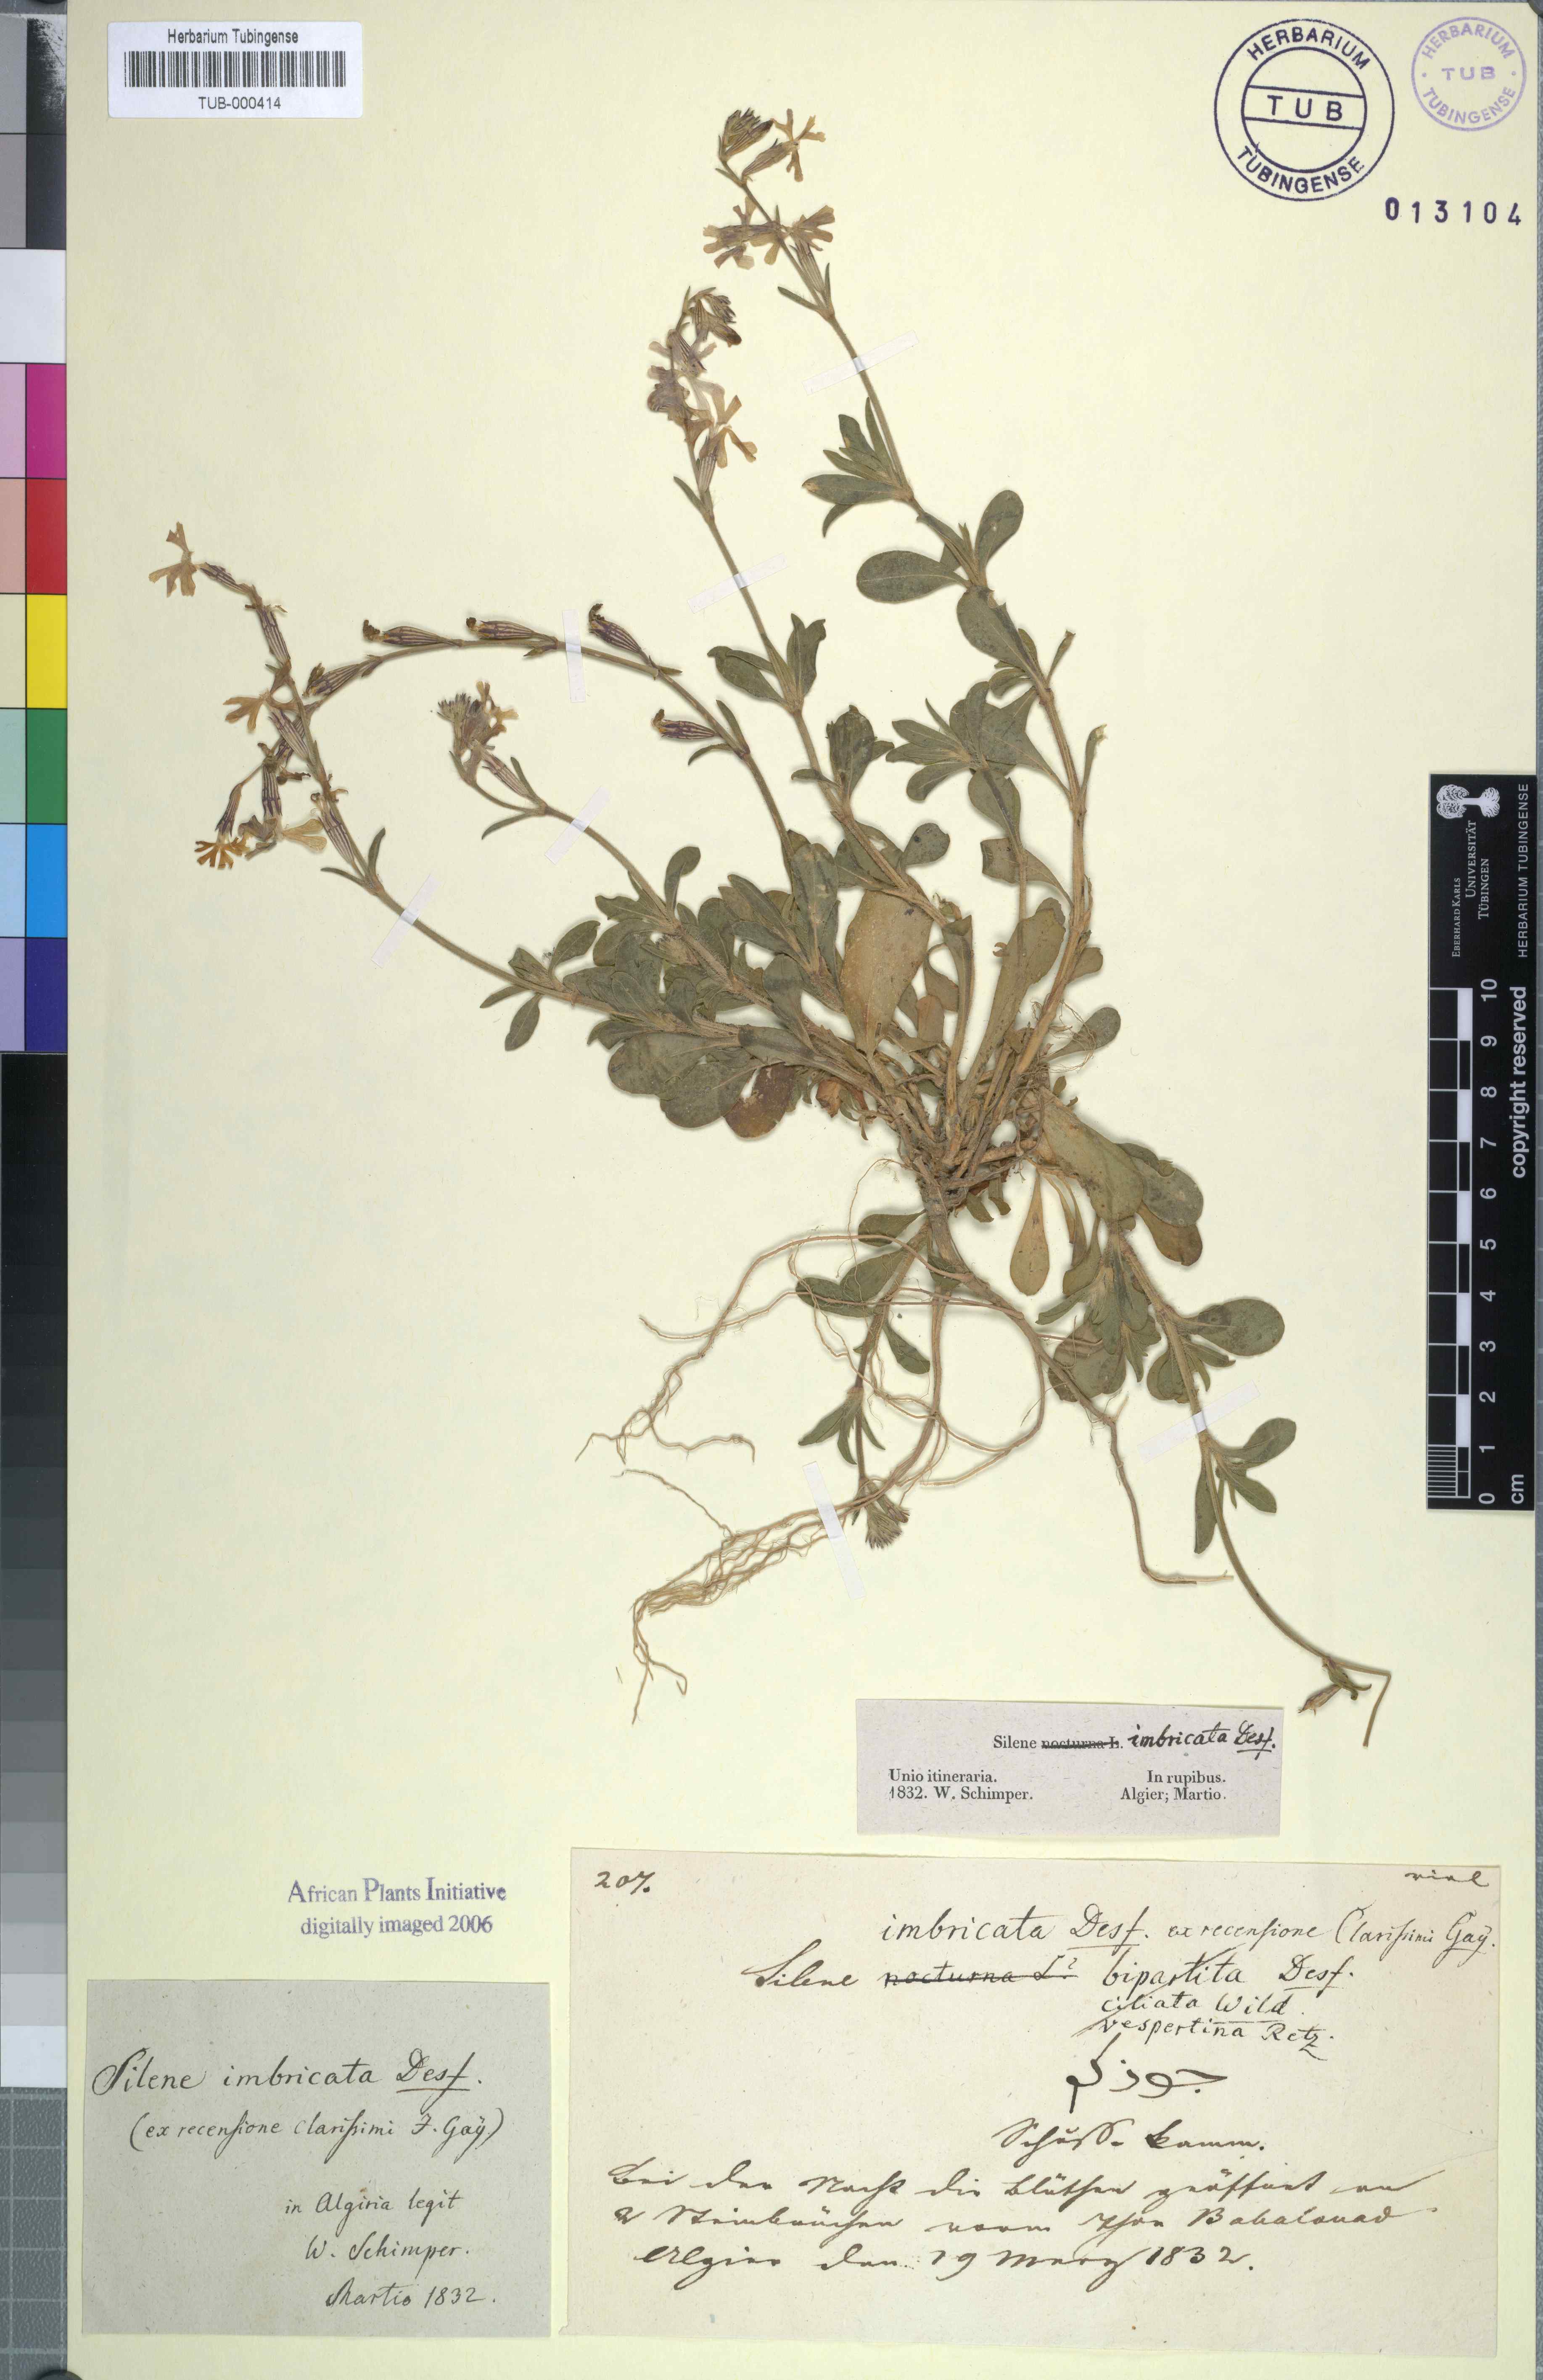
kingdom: Plantae
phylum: Tracheophyta
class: Magnoliopsida
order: Caryophyllales
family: Caryophyllaceae
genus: Silene
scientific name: Silene imbricata
